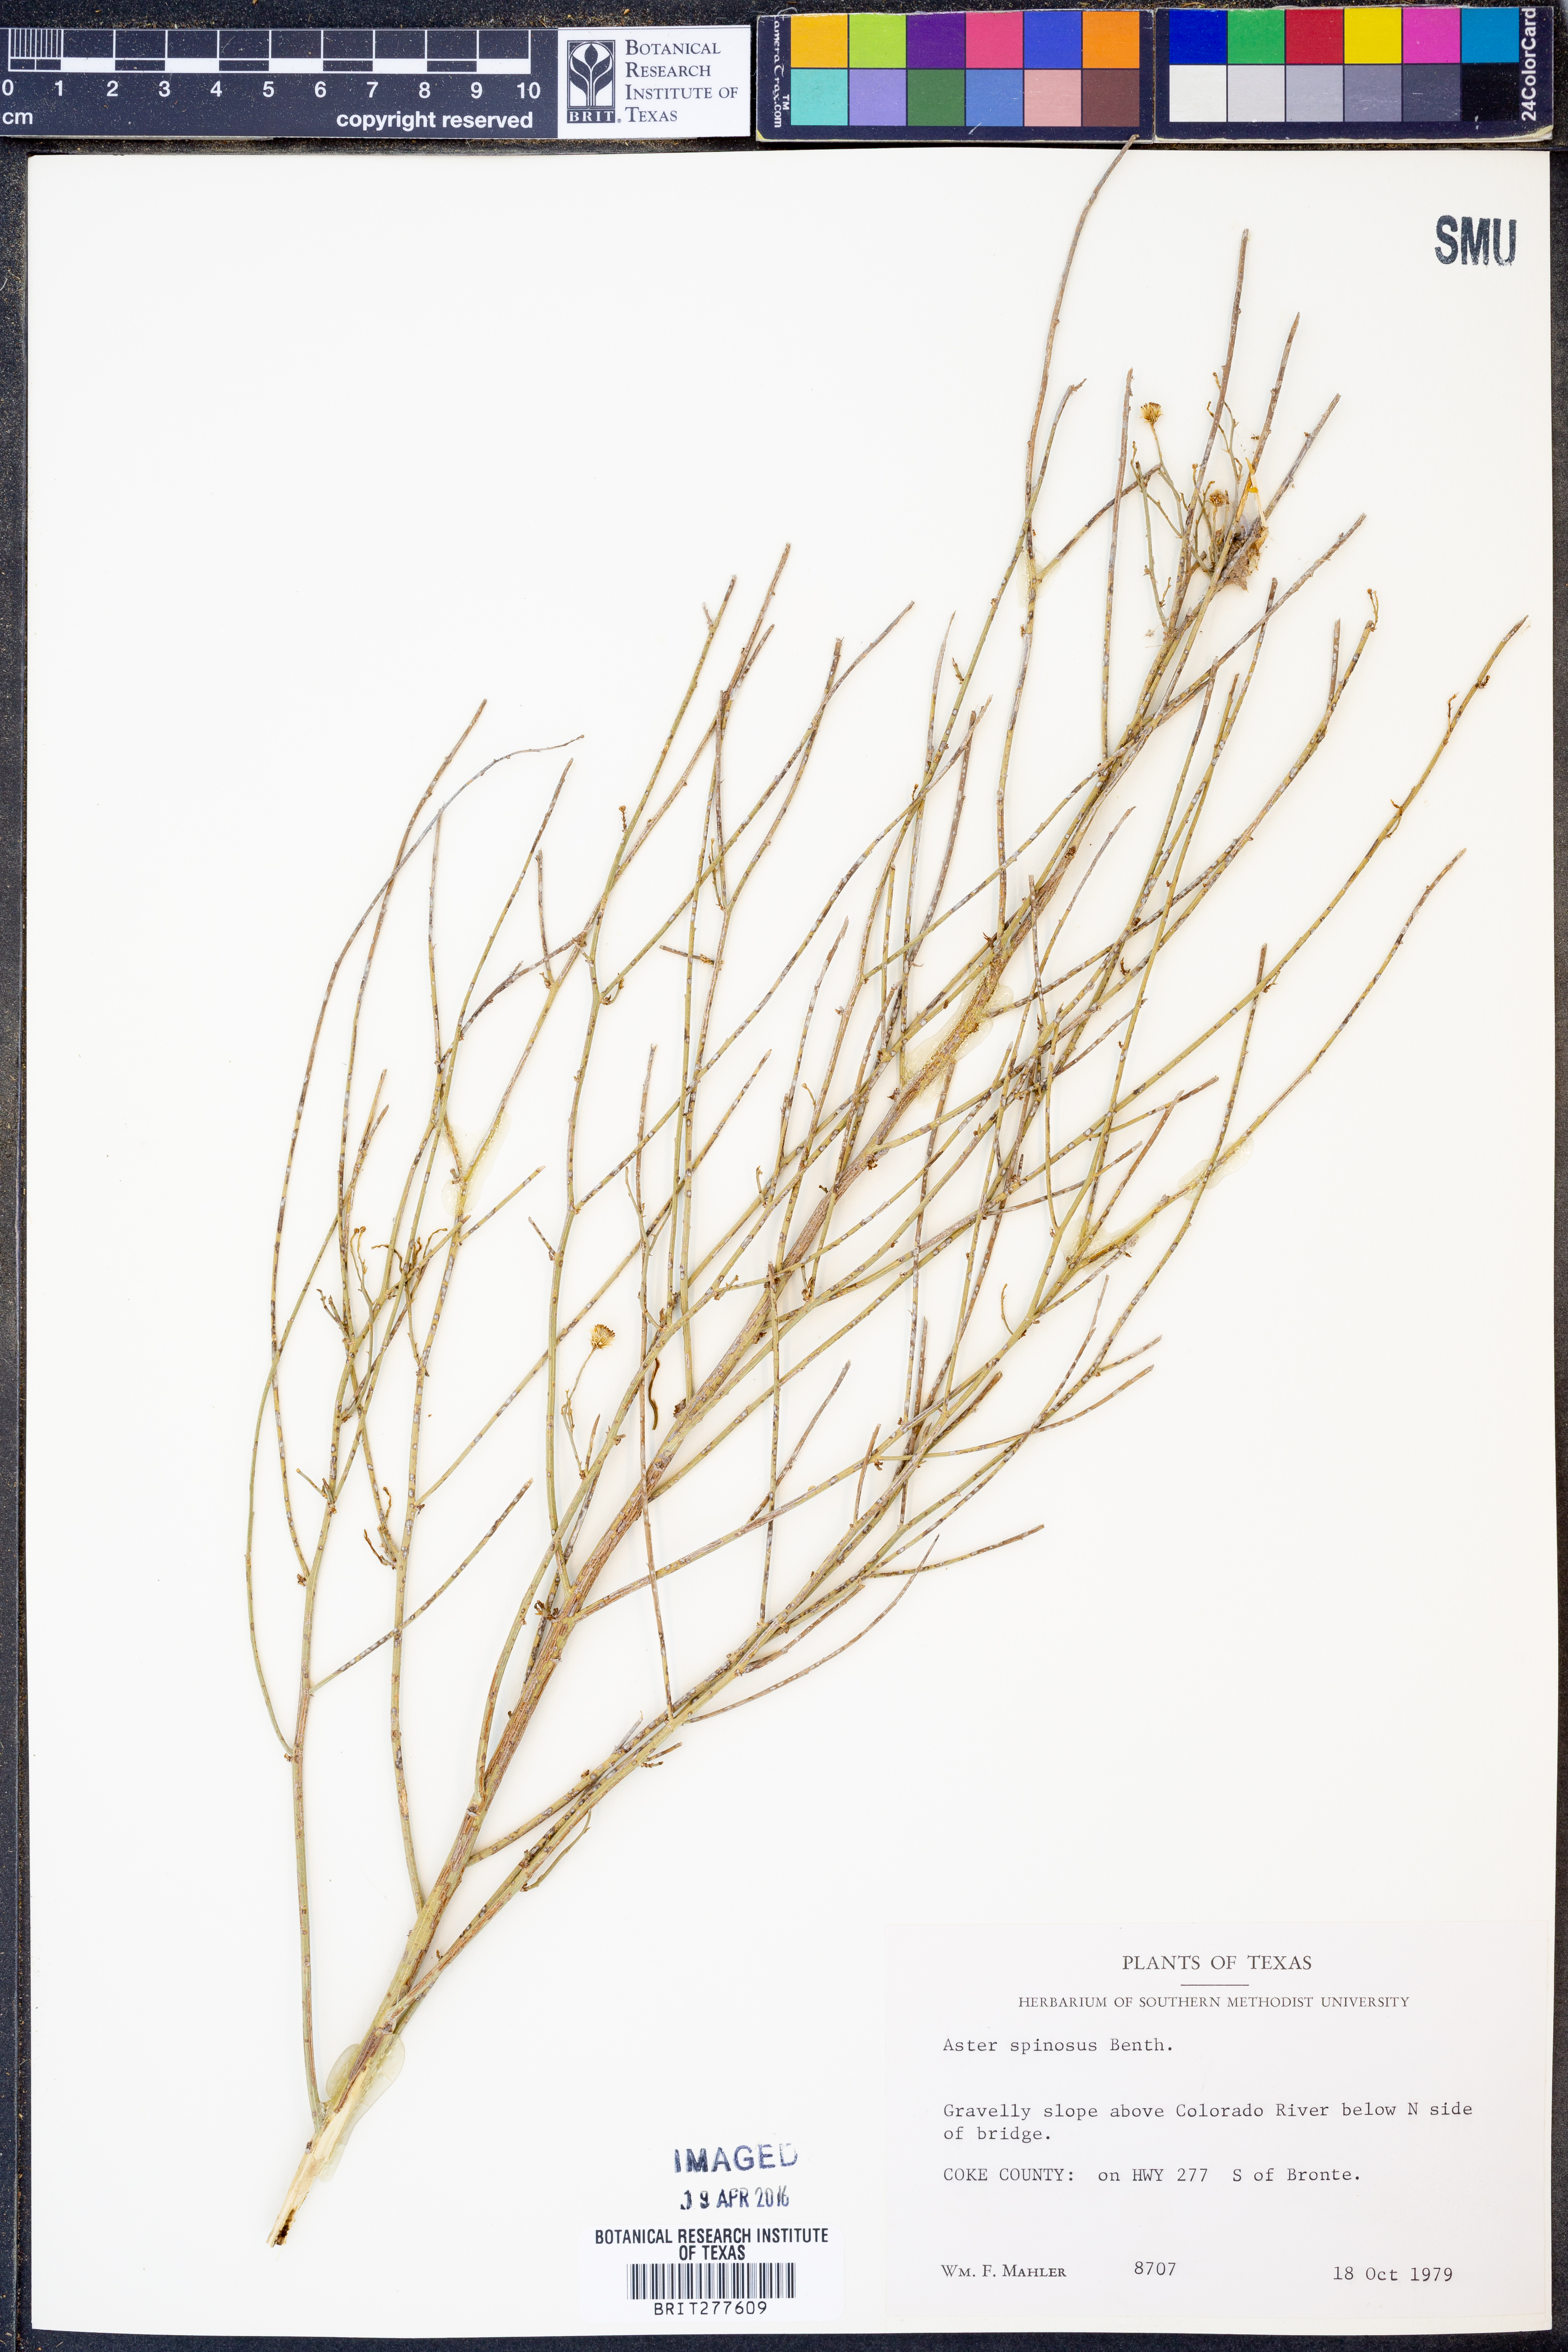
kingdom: Plantae
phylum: Tracheophyta
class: Magnoliopsida
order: Asterales
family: Asteraceae
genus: Chloracantha
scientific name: Chloracantha spinosa
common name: Mexican devilweed
